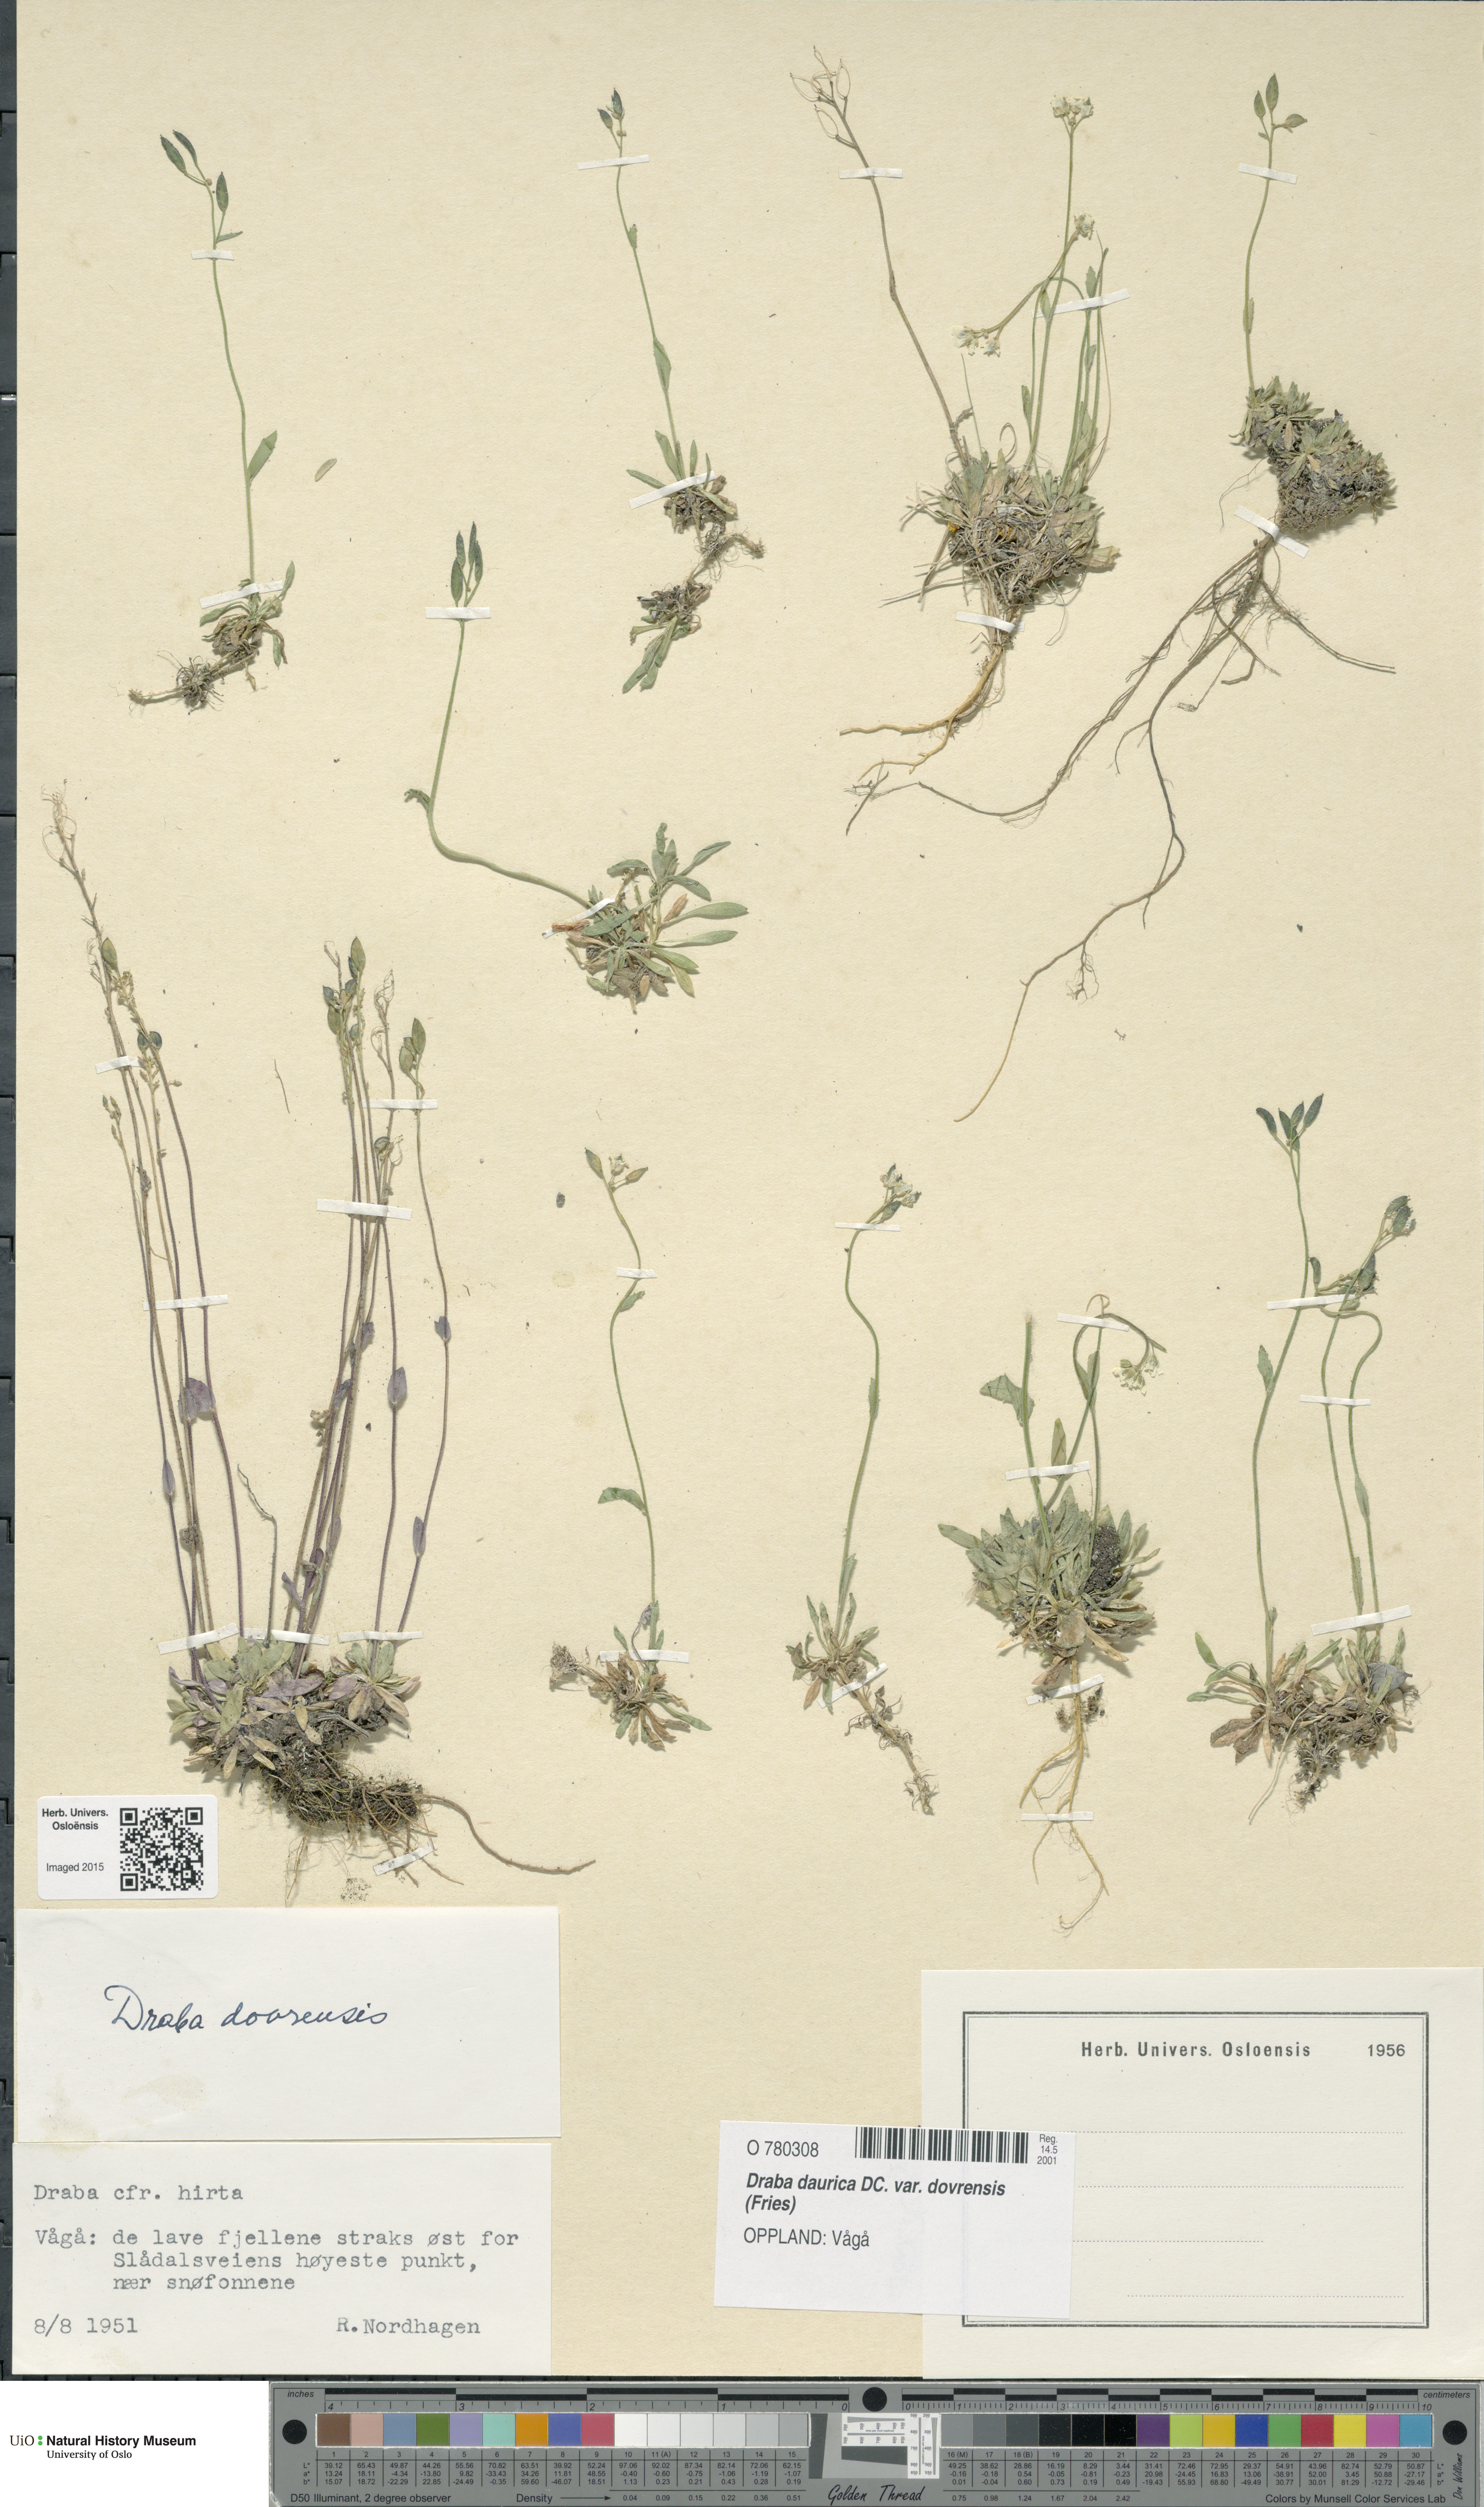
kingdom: Plantae
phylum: Tracheophyta
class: Magnoliopsida
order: Brassicales
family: Brassicaceae
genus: Draba
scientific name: Draba glabella
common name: Glaucous draba
